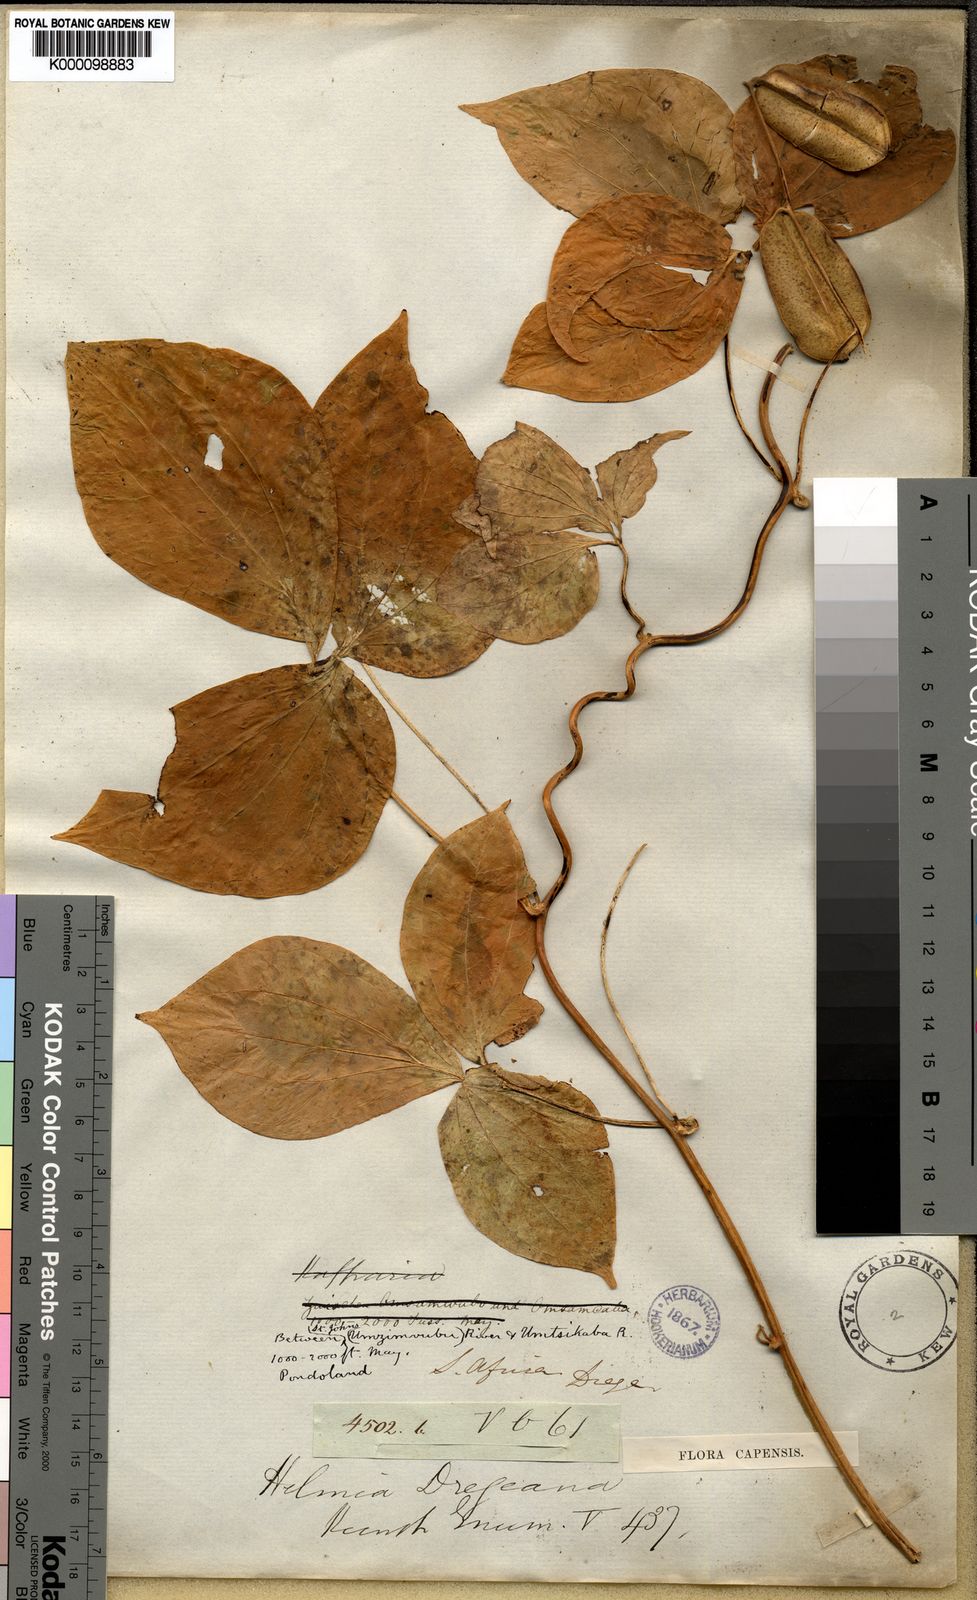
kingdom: Plantae
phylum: Tracheophyta
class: Liliopsida
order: Dioscoreales
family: Dioscoreaceae
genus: Dioscorea
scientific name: Dioscorea
